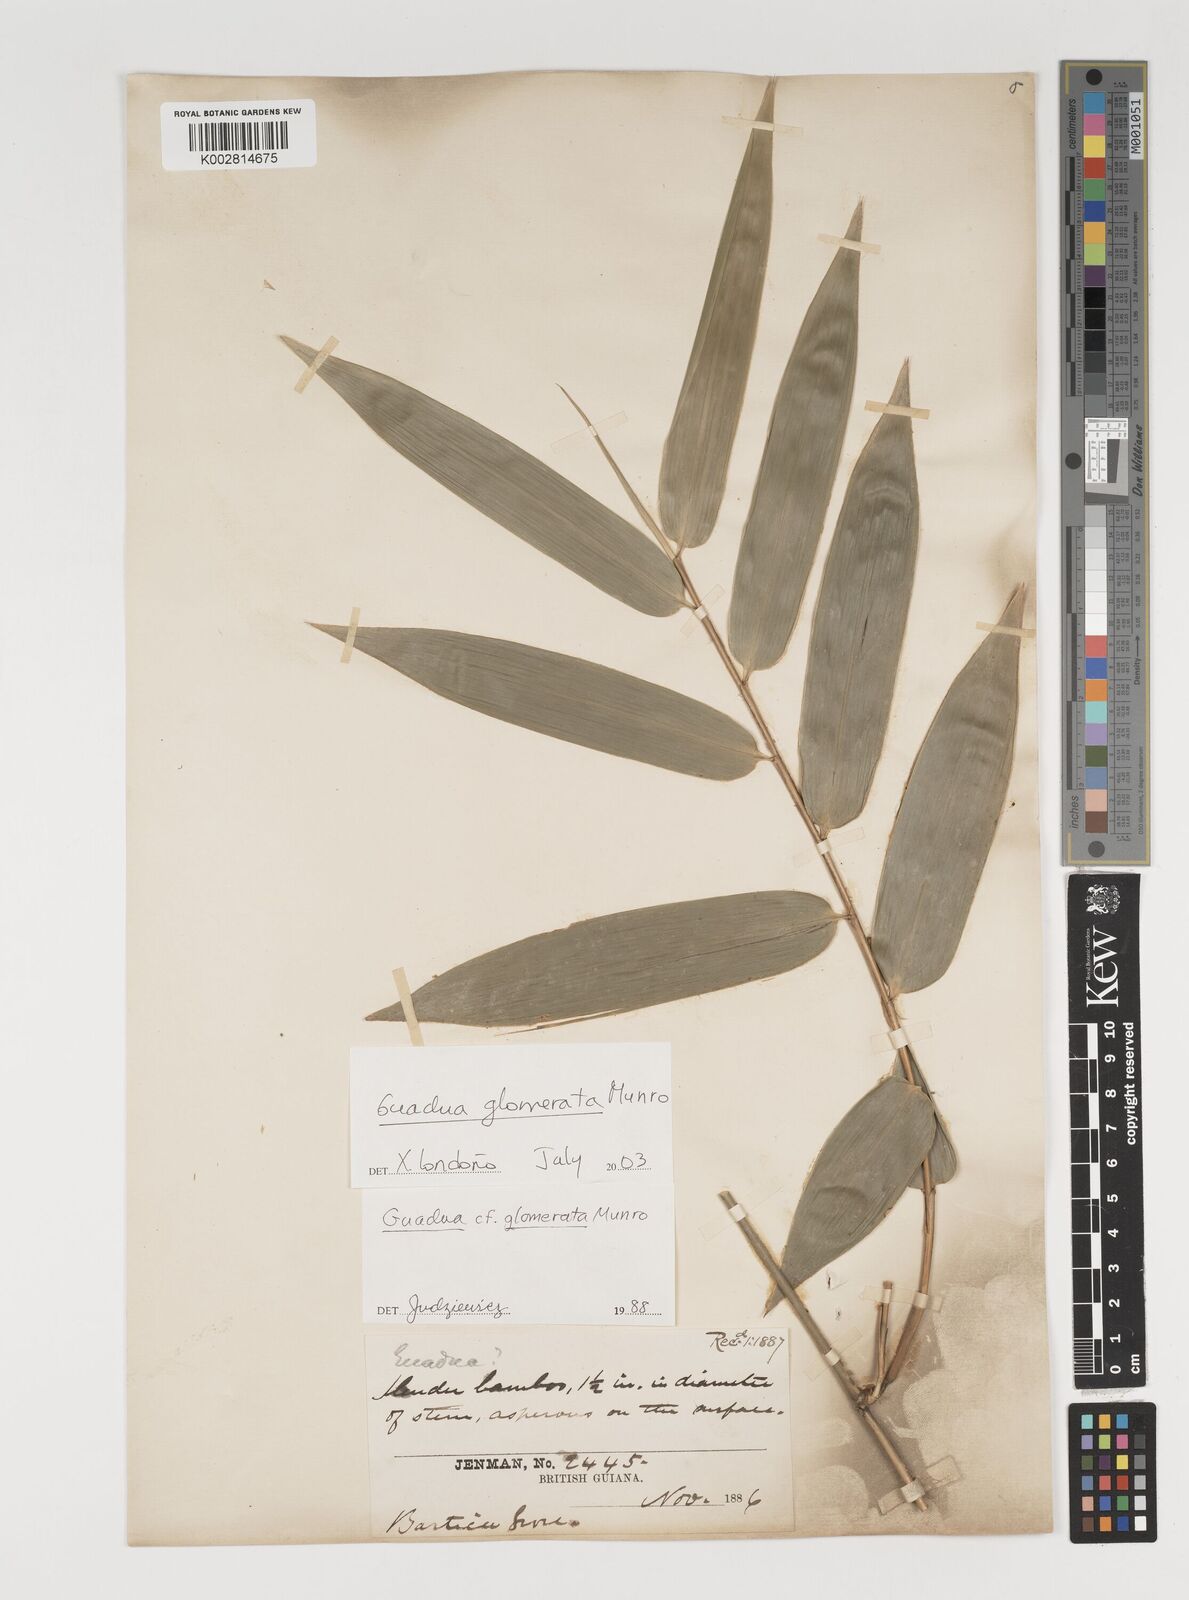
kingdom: Plantae
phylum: Tracheophyta
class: Liliopsida
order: Poales
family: Poaceae
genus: Guadua
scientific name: Guadua glomerata
